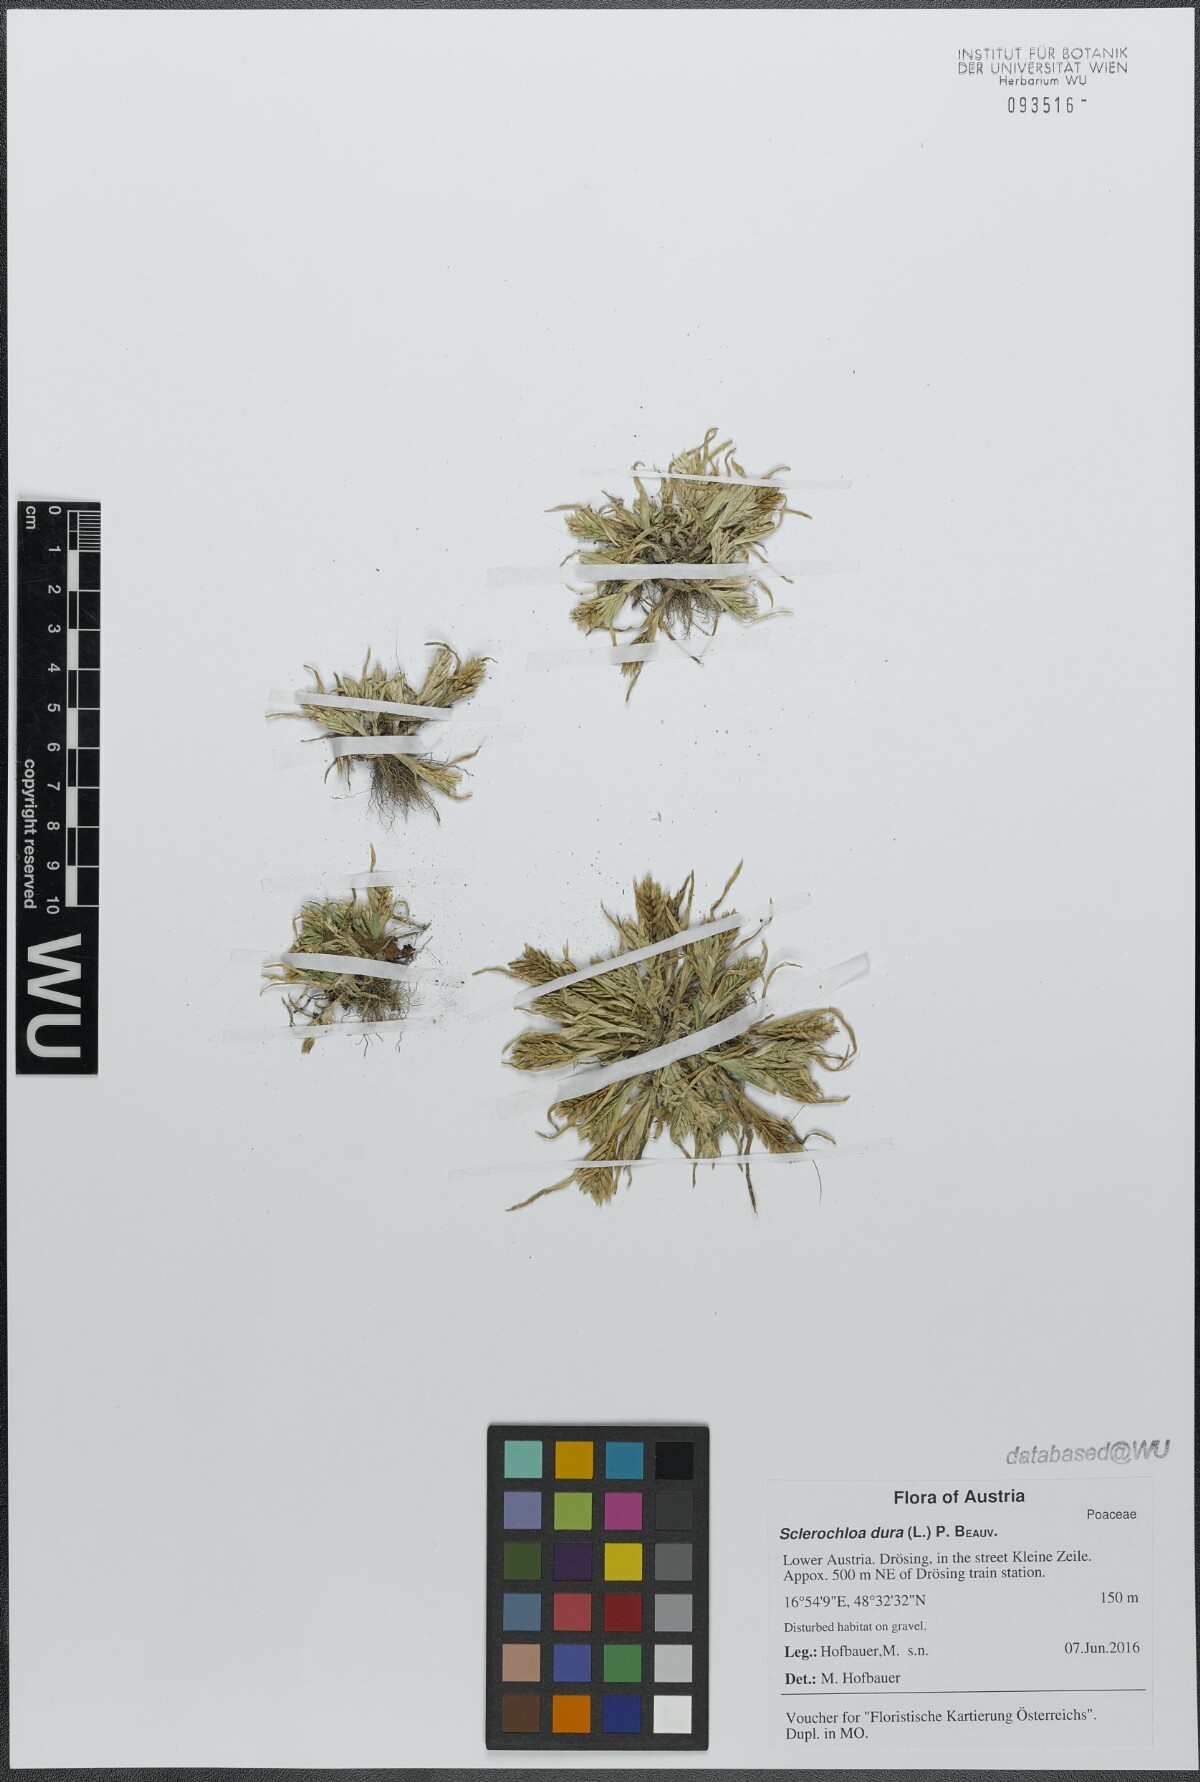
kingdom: Plantae
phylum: Tracheophyta
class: Liliopsida
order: Poales
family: Poaceae
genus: Sclerochloa
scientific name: Sclerochloa dura
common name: Common hardgrass
